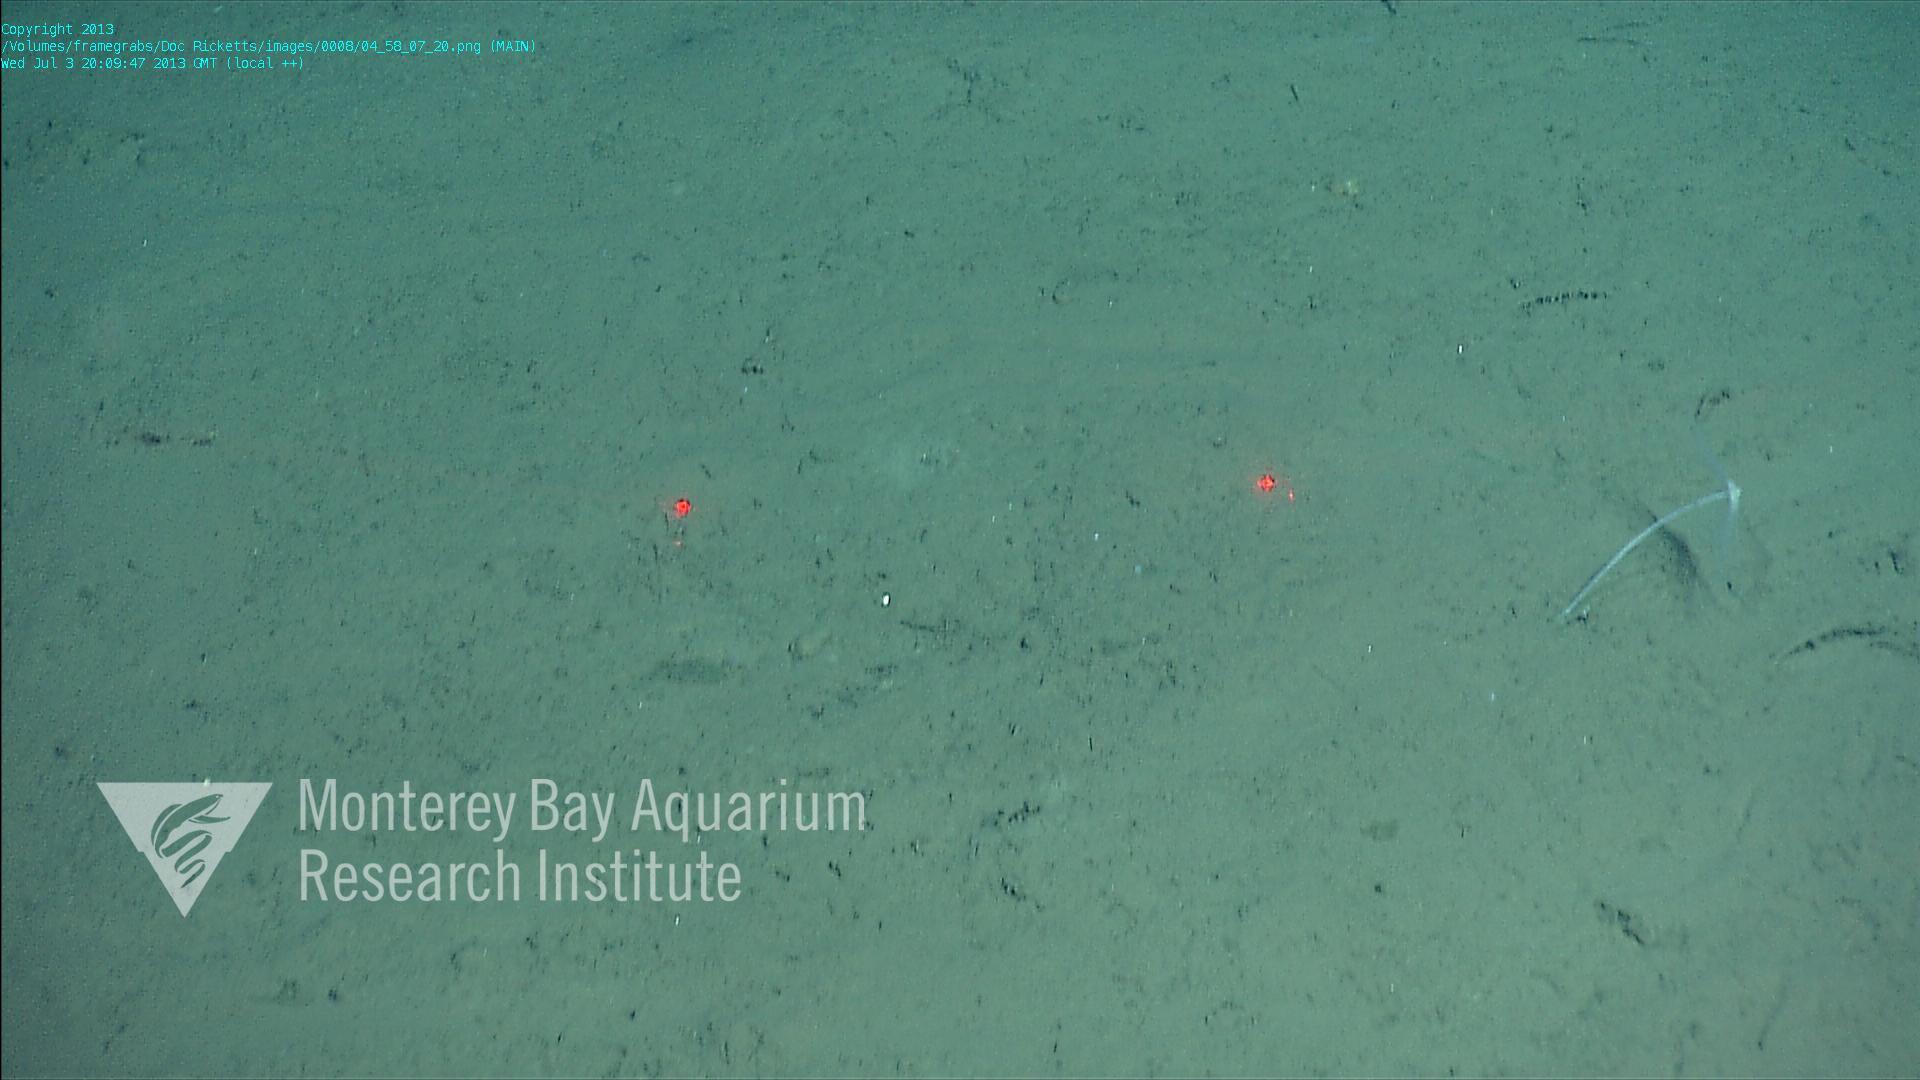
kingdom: Animalia
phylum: Porifera
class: Demospongiae
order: Poecilosclerida
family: Cladorhizidae
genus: Cladorhiza
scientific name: Cladorhiza
